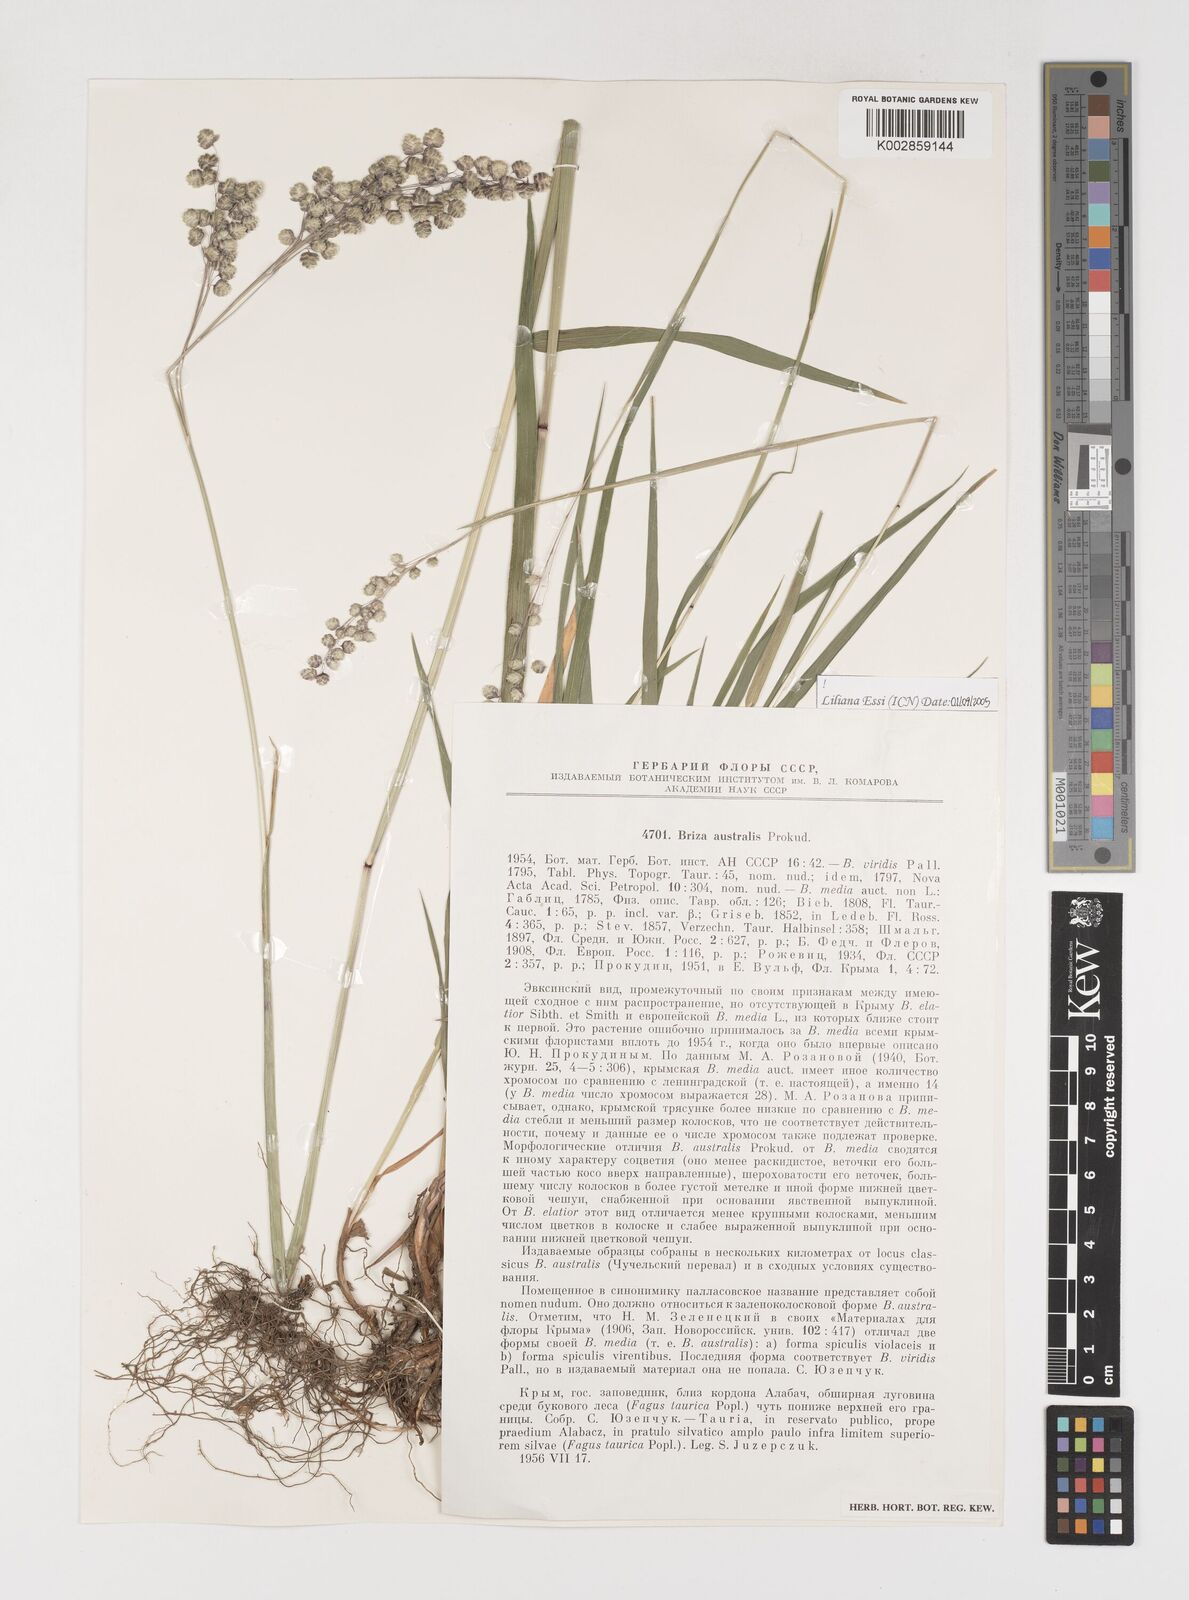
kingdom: Plantae
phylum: Tracheophyta
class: Liliopsida
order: Poales
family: Poaceae
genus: Briza
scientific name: Briza media
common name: Quaking grass
